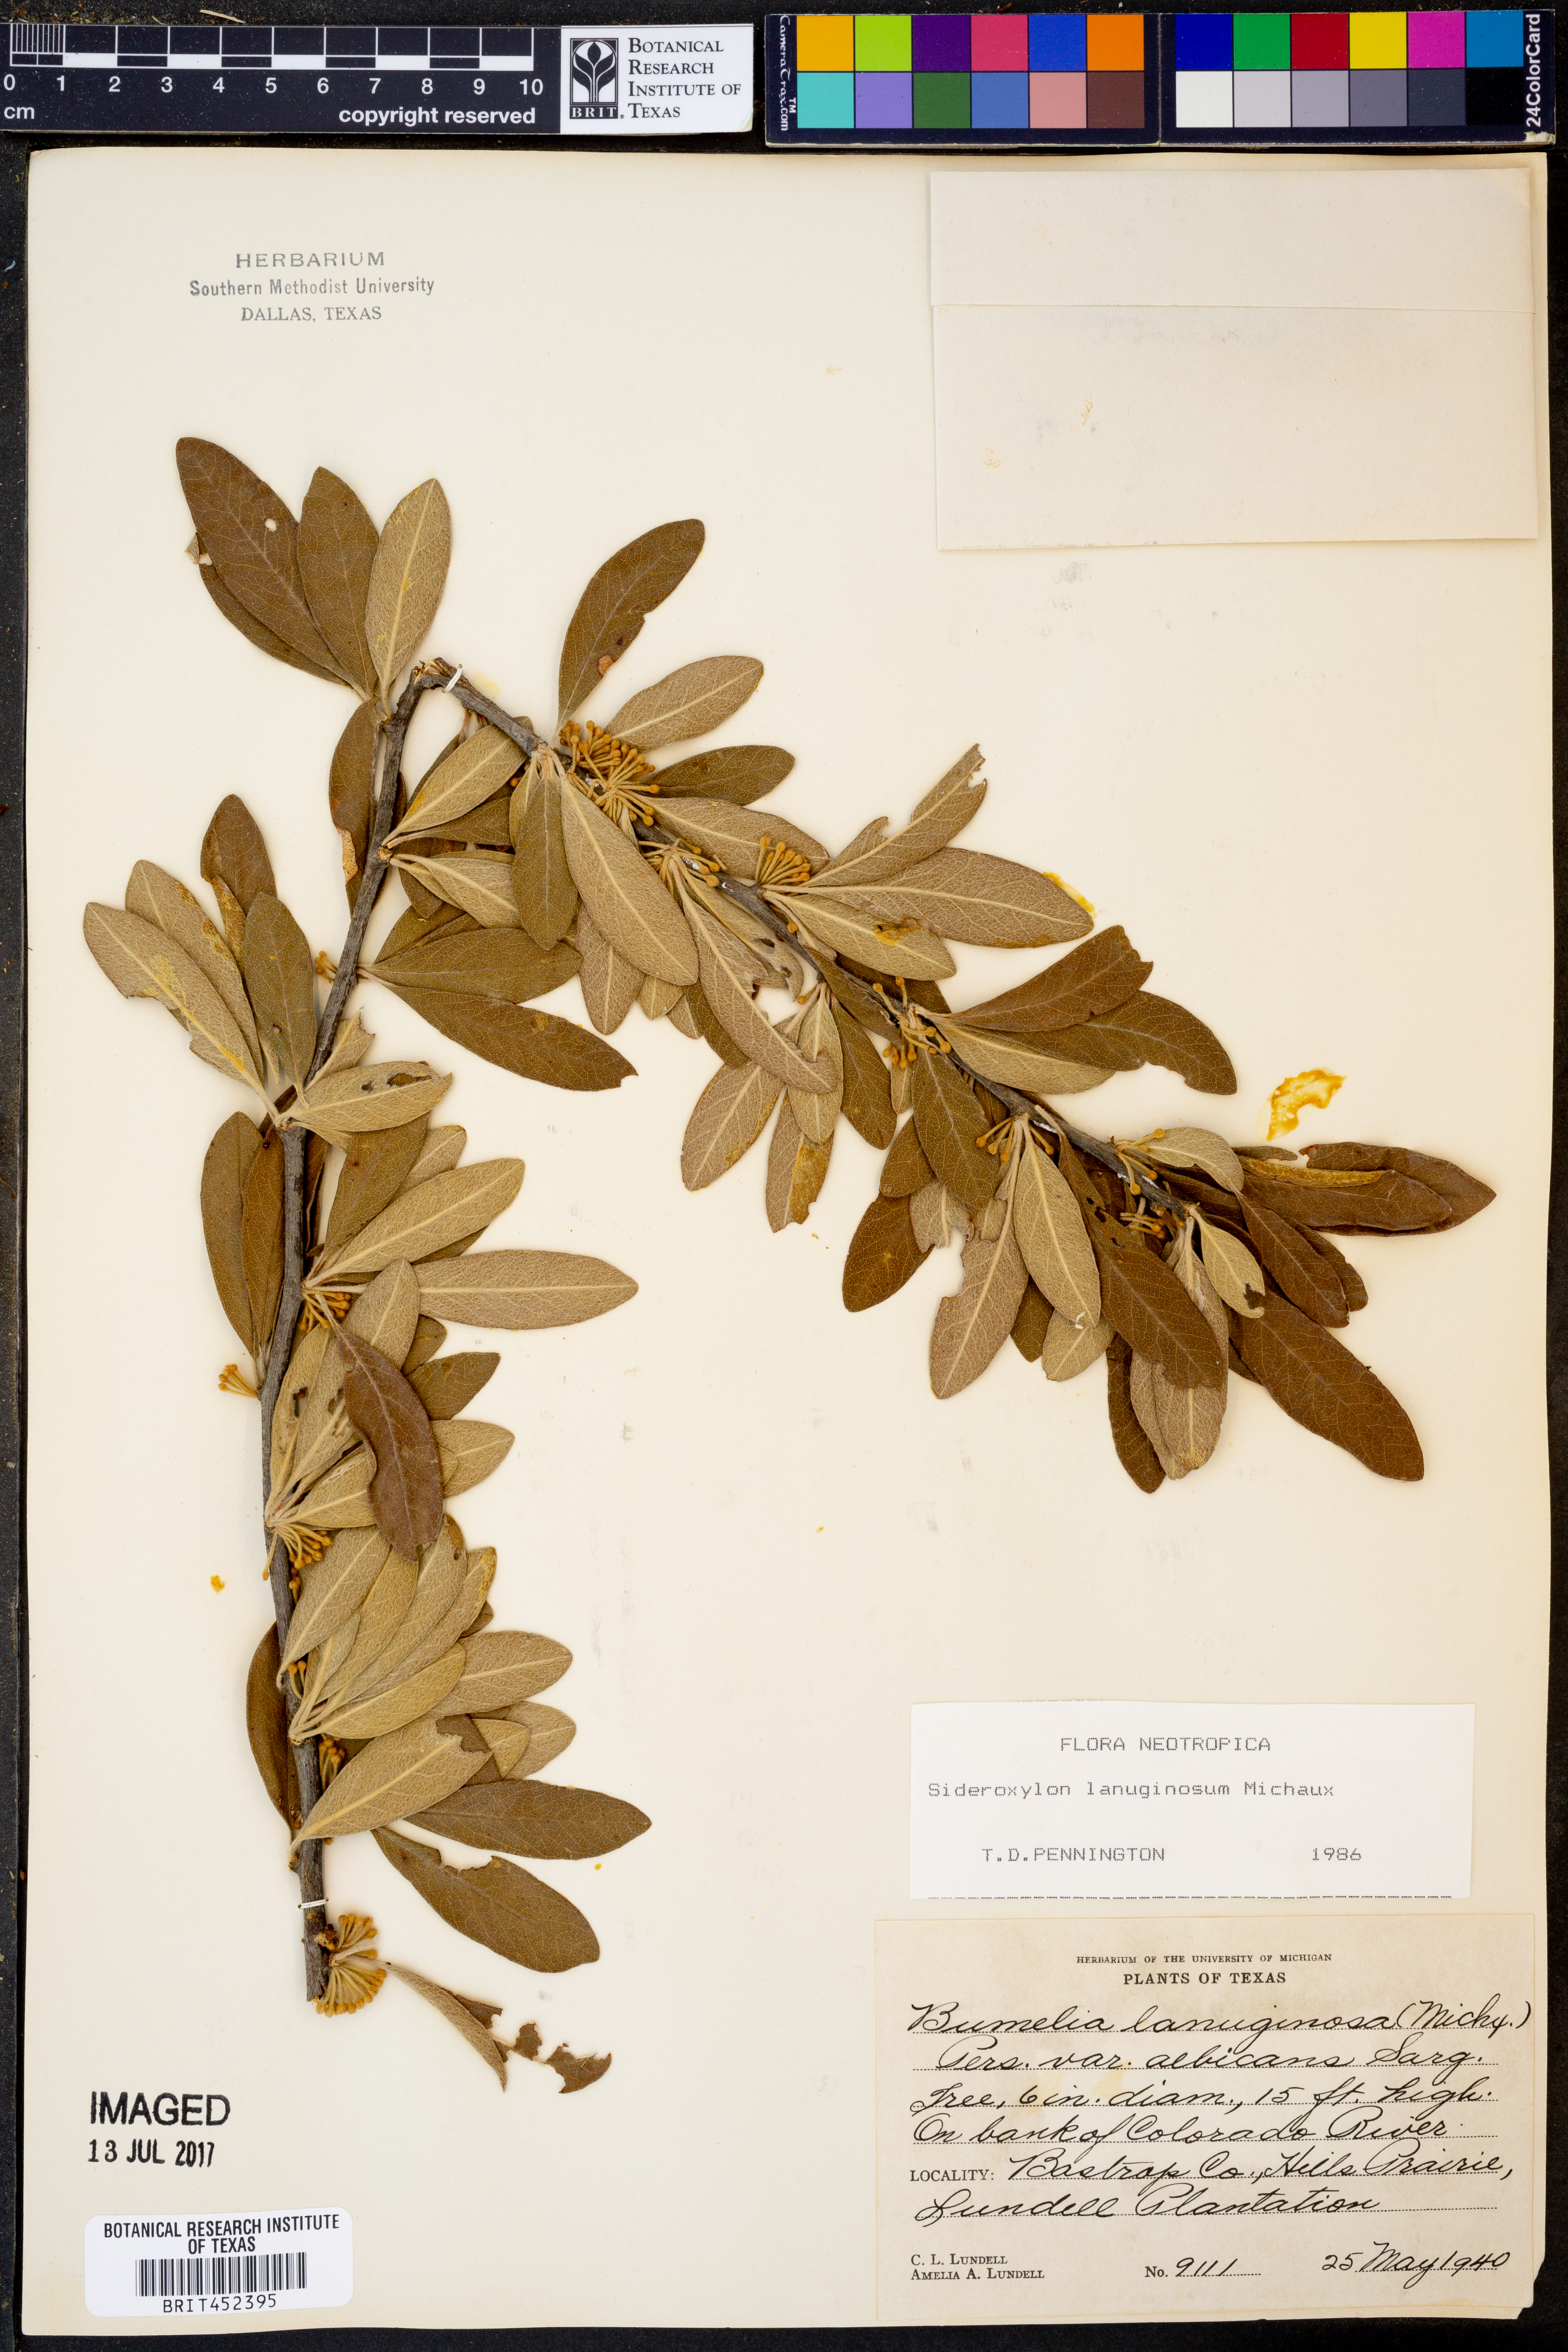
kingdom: Plantae
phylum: Tracheophyta
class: Magnoliopsida
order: Ericales
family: Sapotaceae
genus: Sideroxylon
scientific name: Sideroxylon lanuginosum
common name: Chittamwood
